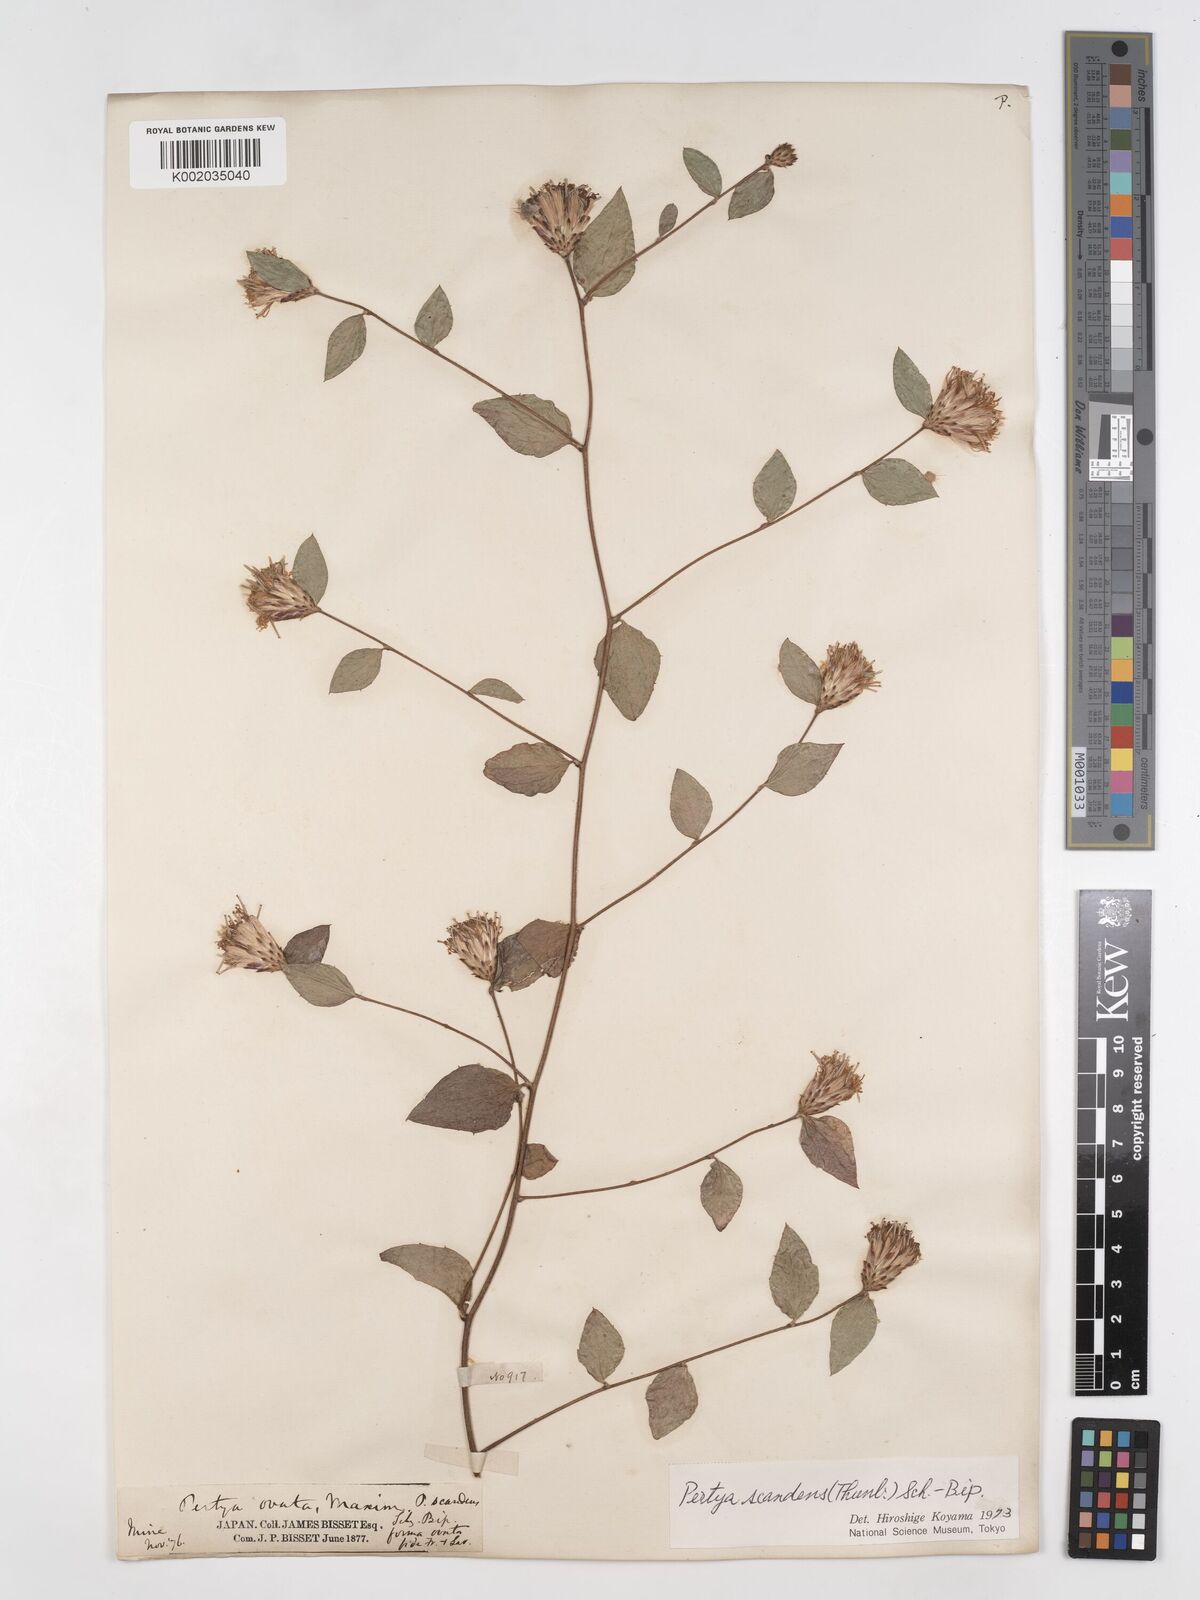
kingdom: Plantae
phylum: Tracheophyta
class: Magnoliopsida
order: Asterales
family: Asteraceae
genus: Pertya
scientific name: Pertya scandens
